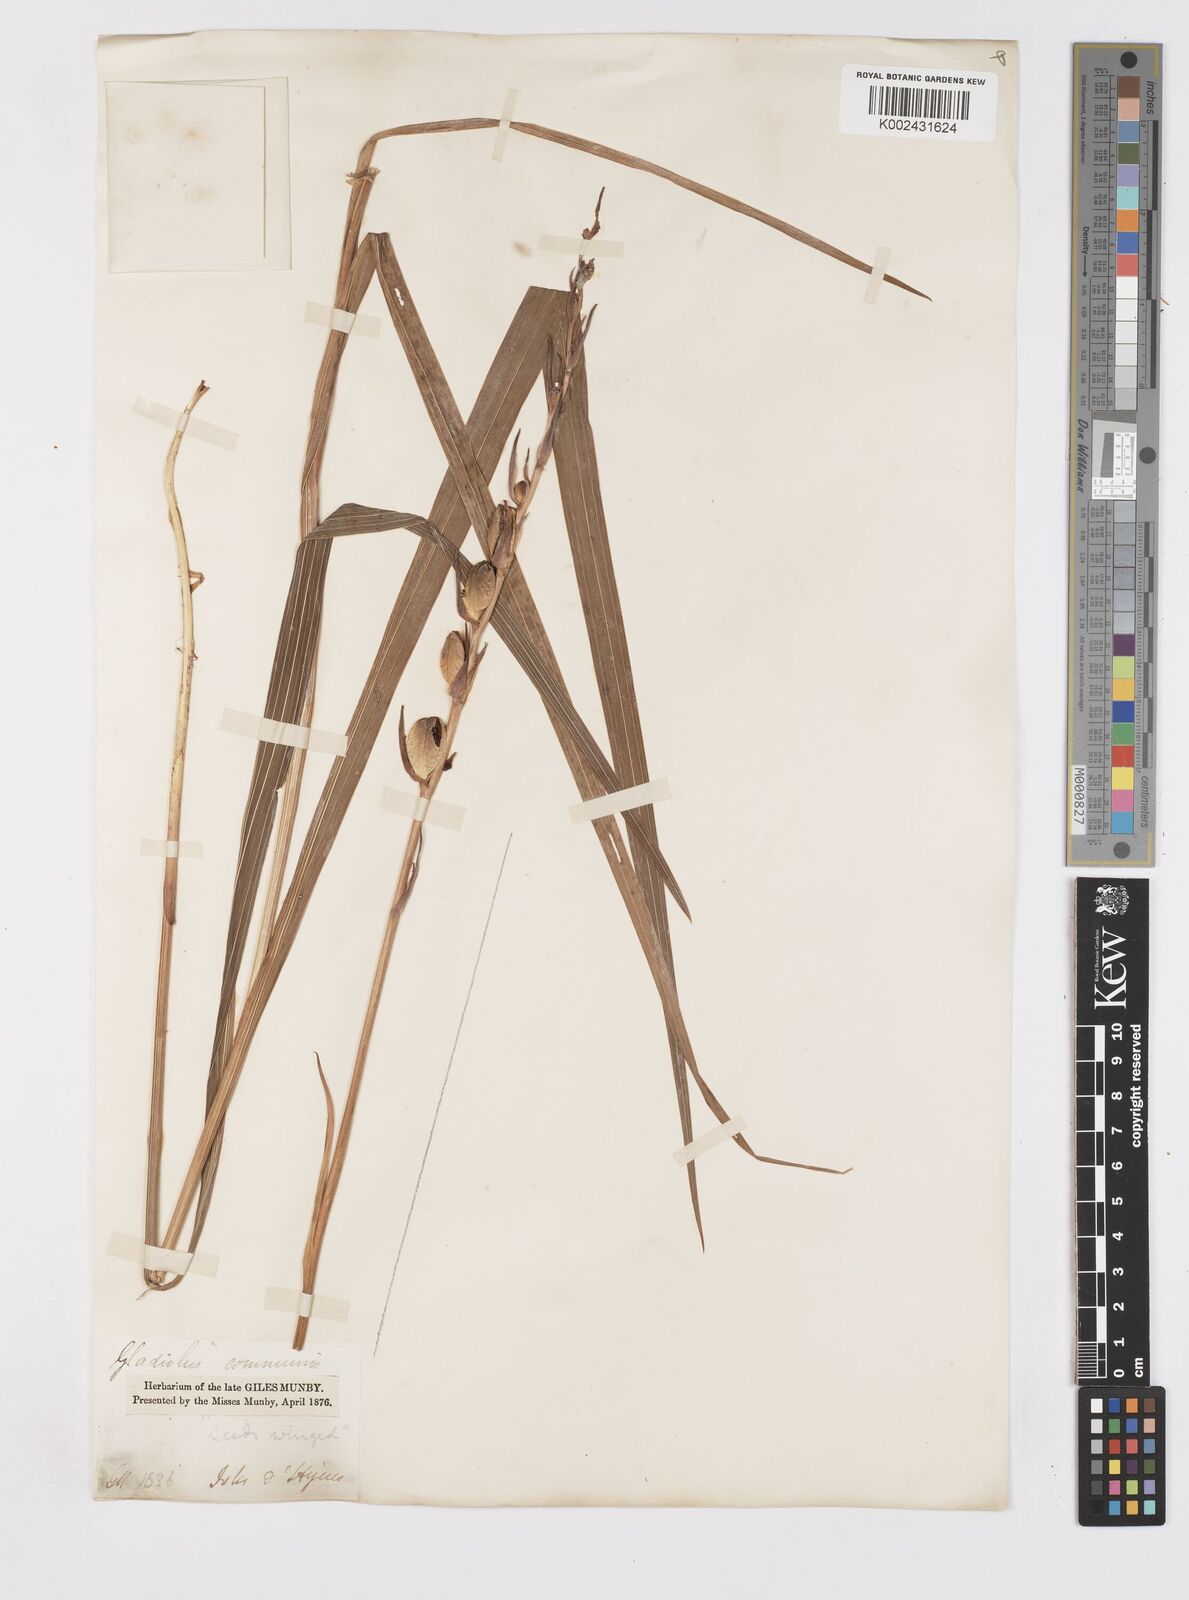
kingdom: Plantae
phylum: Tracheophyta
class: Liliopsida
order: Asparagales
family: Iridaceae
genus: Gladiolus
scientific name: Gladiolus communis
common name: Eastern gladiolus
